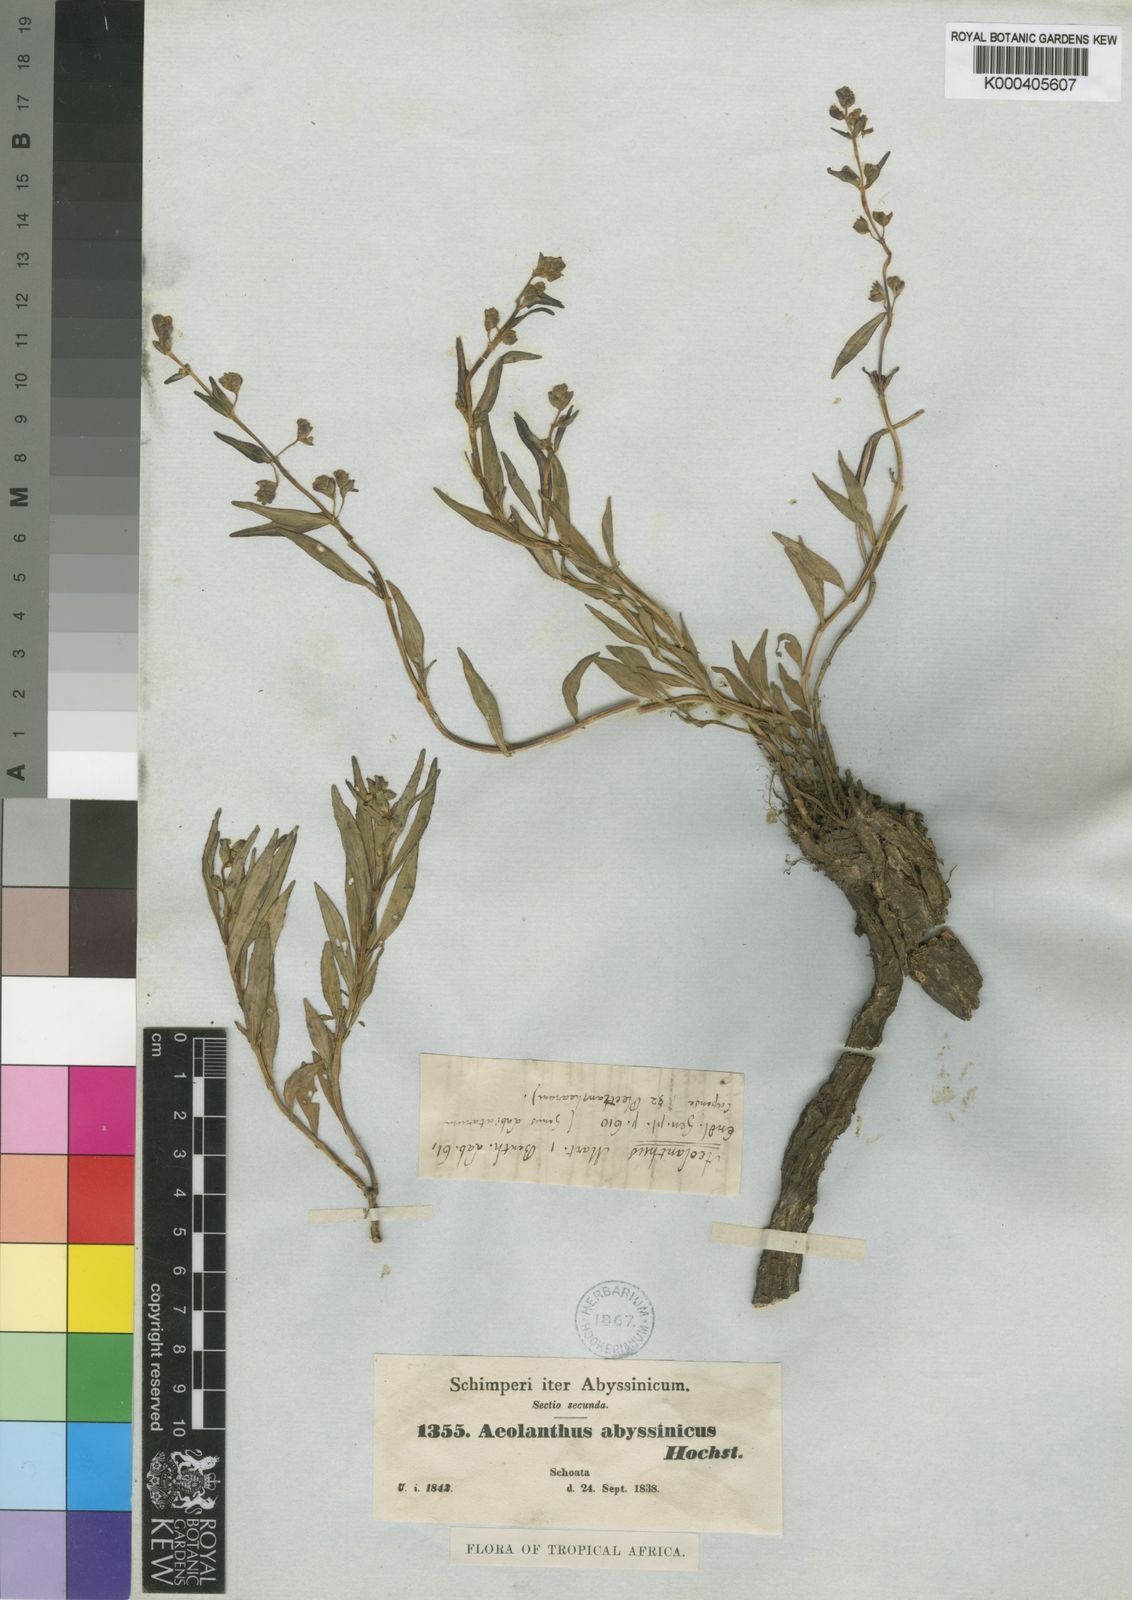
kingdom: Plantae
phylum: Tracheophyta
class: Magnoliopsida
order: Lamiales
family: Lamiaceae
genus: Aeollanthus
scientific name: Aeollanthus abyssinicus
